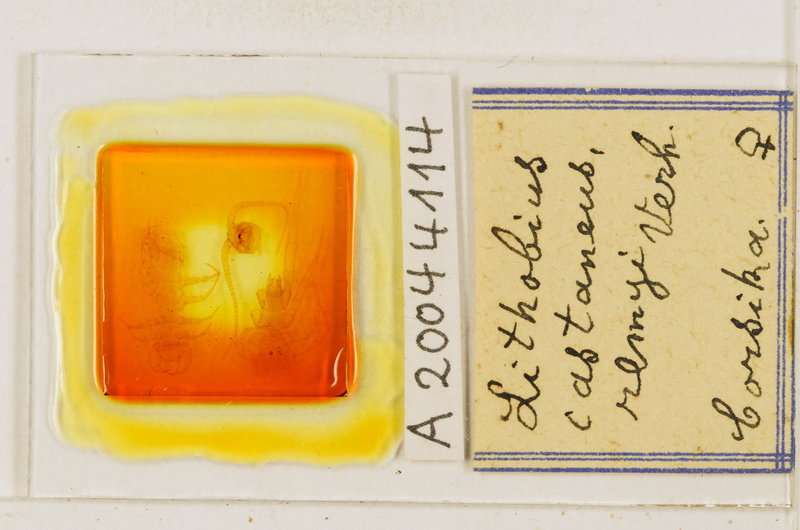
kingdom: Animalia
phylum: Arthropoda
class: Chilopoda
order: Lithobiomorpha
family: Lithobiidae
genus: Lithobius
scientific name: Lithobius castaneus
